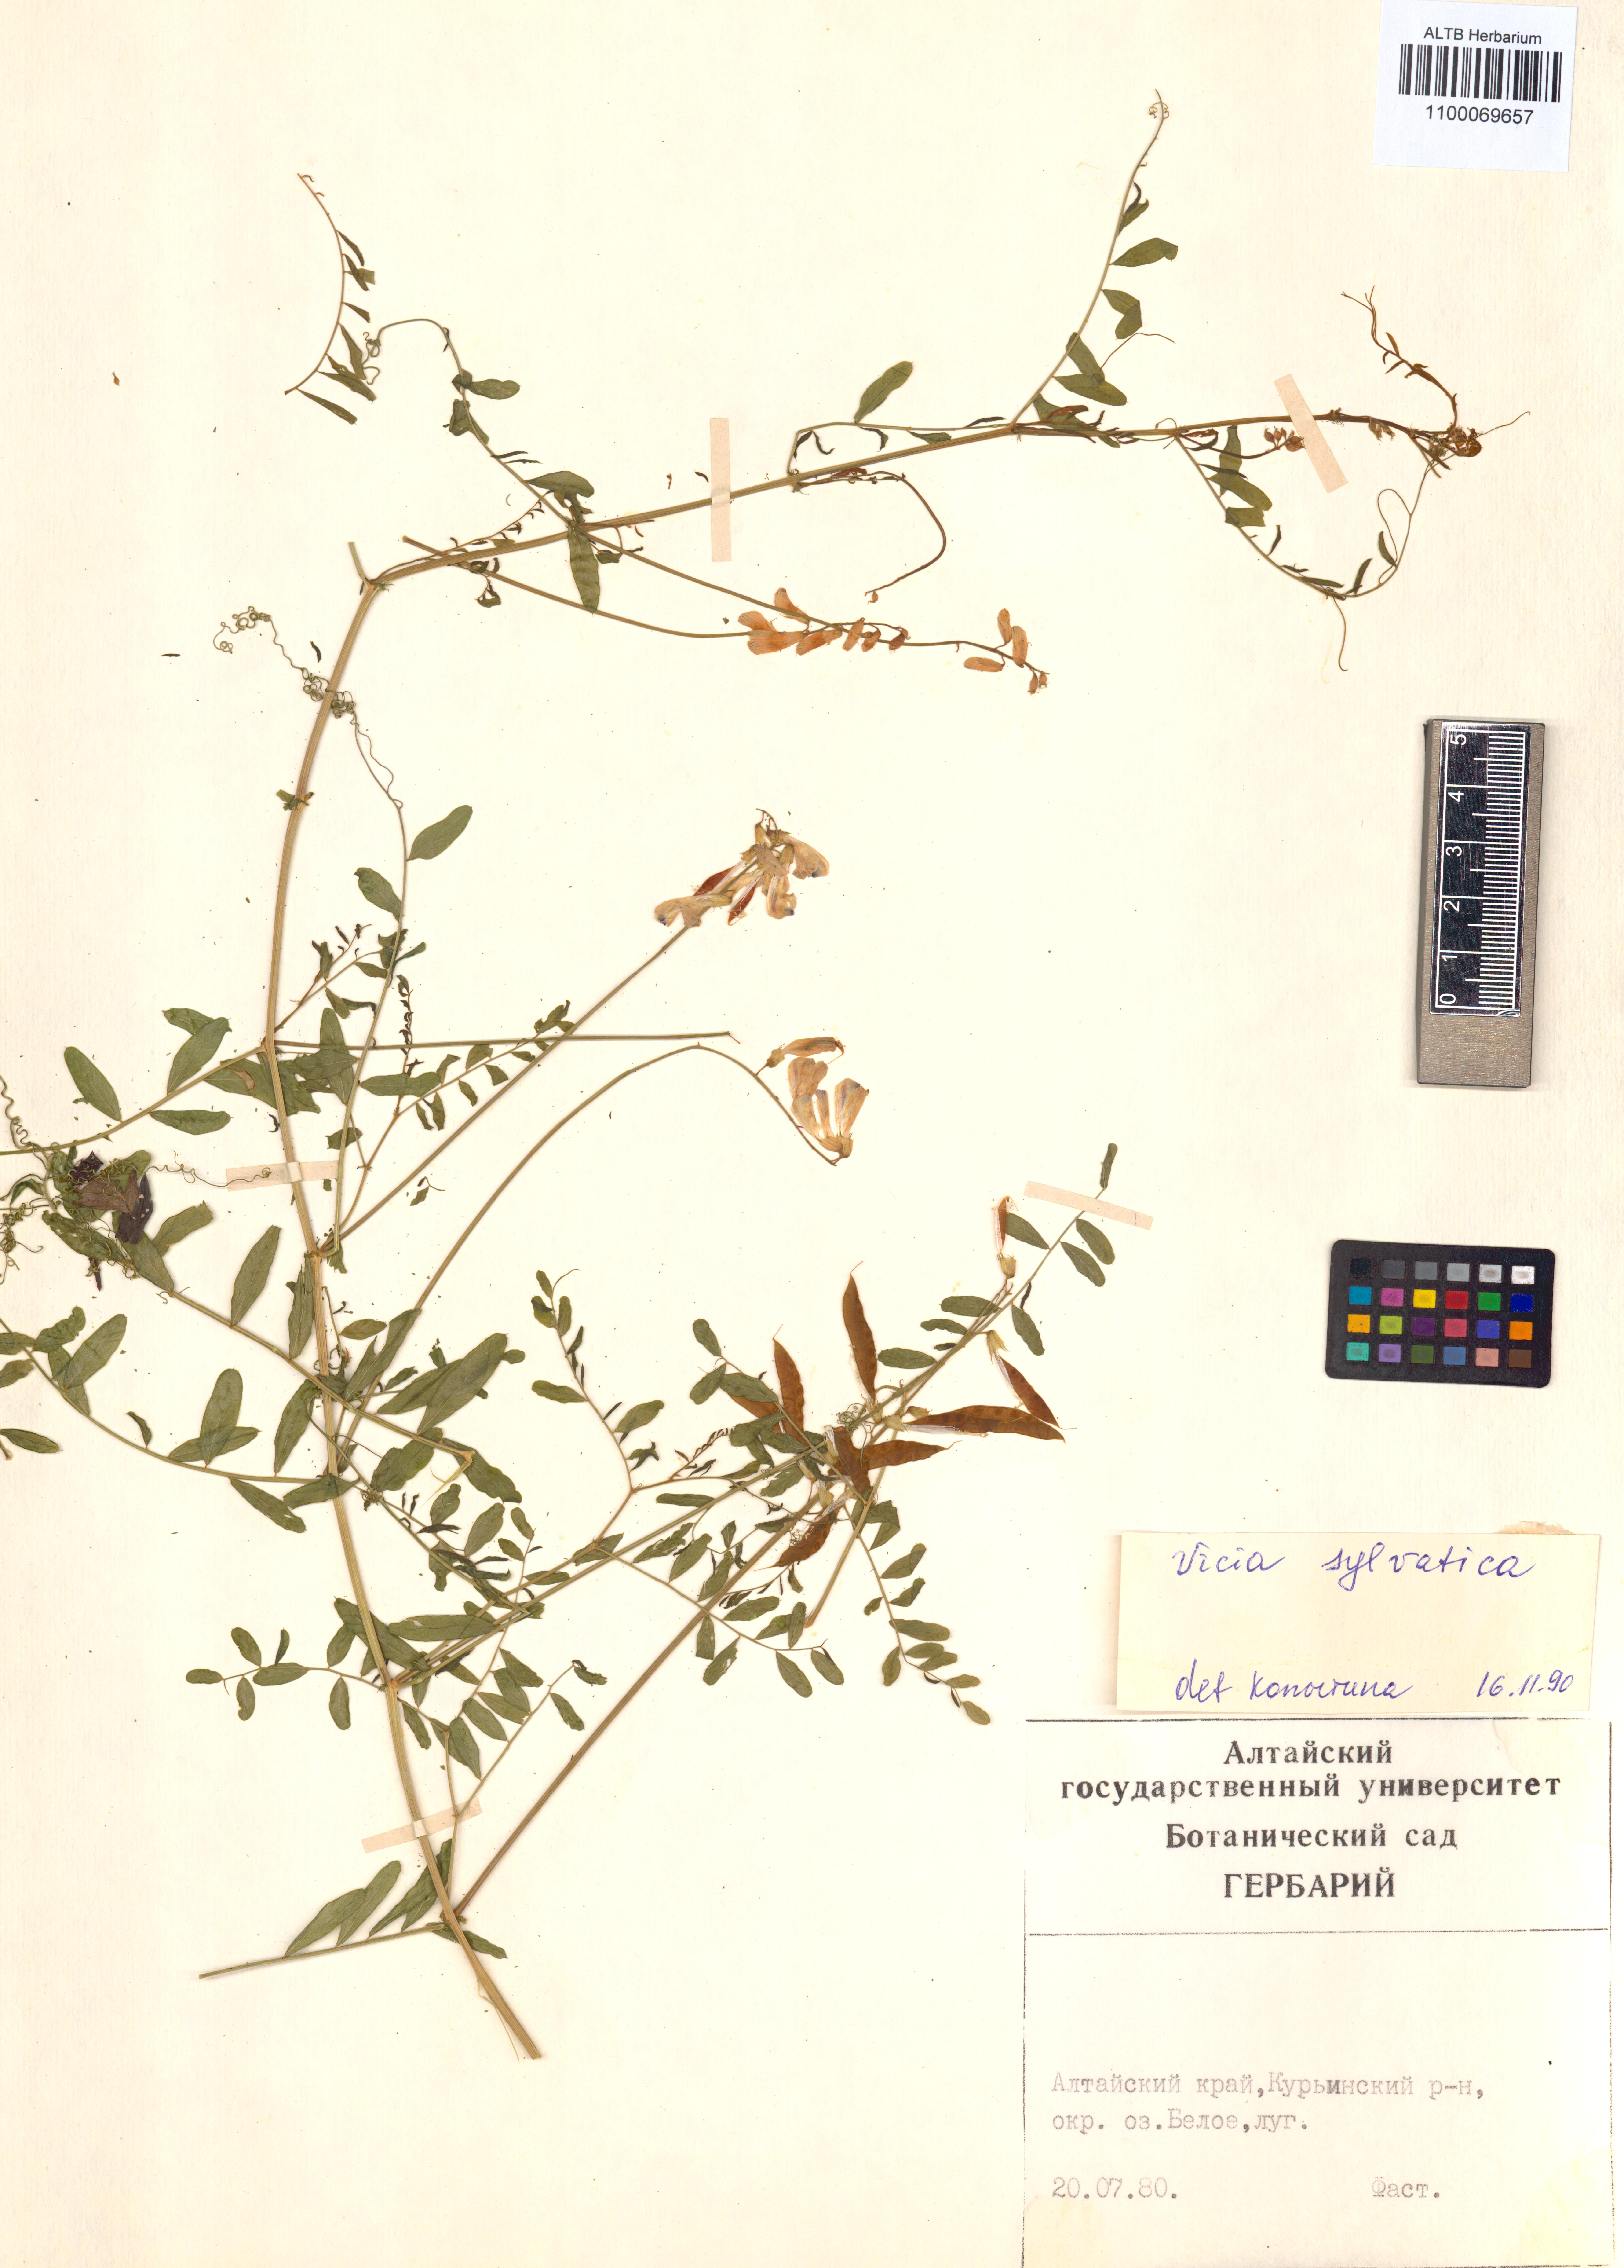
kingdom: Plantae
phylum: Tracheophyta
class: Magnoliopsida
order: Fabales
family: Fabaceae
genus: Vicia
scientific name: Vicia bakeri
